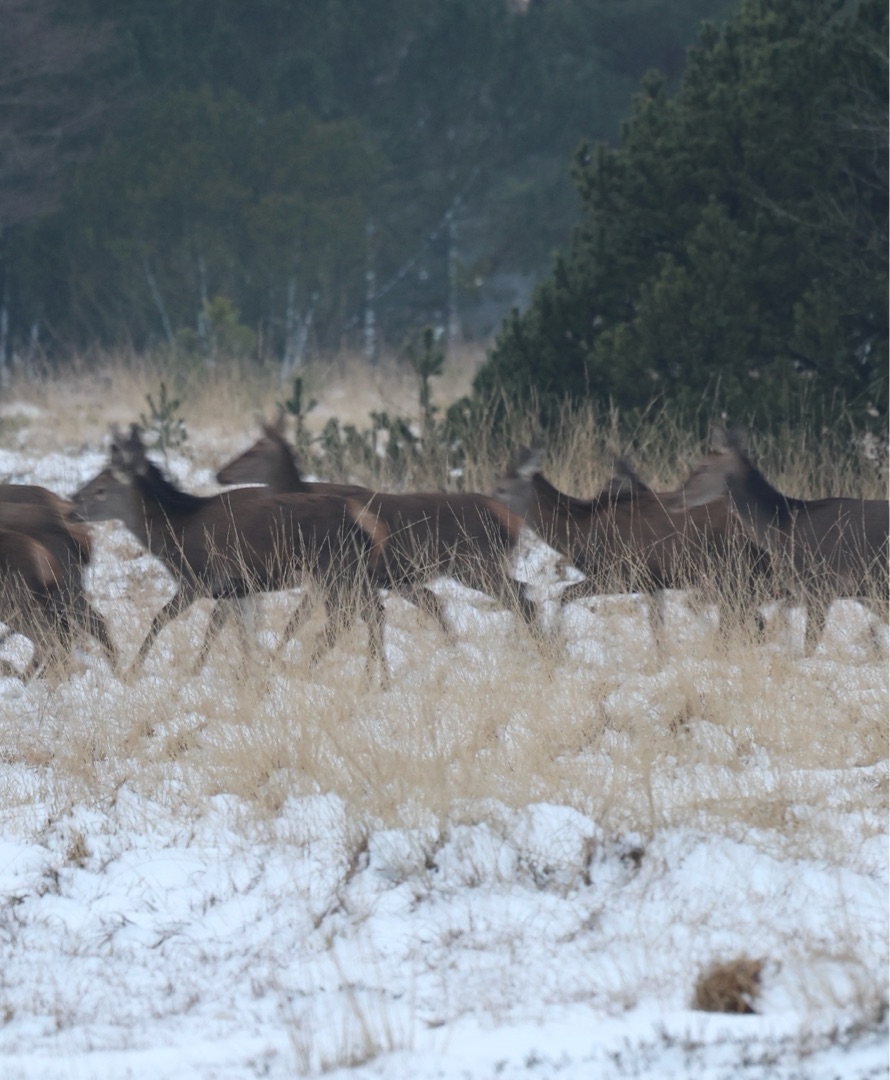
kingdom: Animalia
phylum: Chordata
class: Mammalia
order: Artiodactyla
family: Cervidae
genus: Cervus
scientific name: Cervus elaphus
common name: Krondyr
